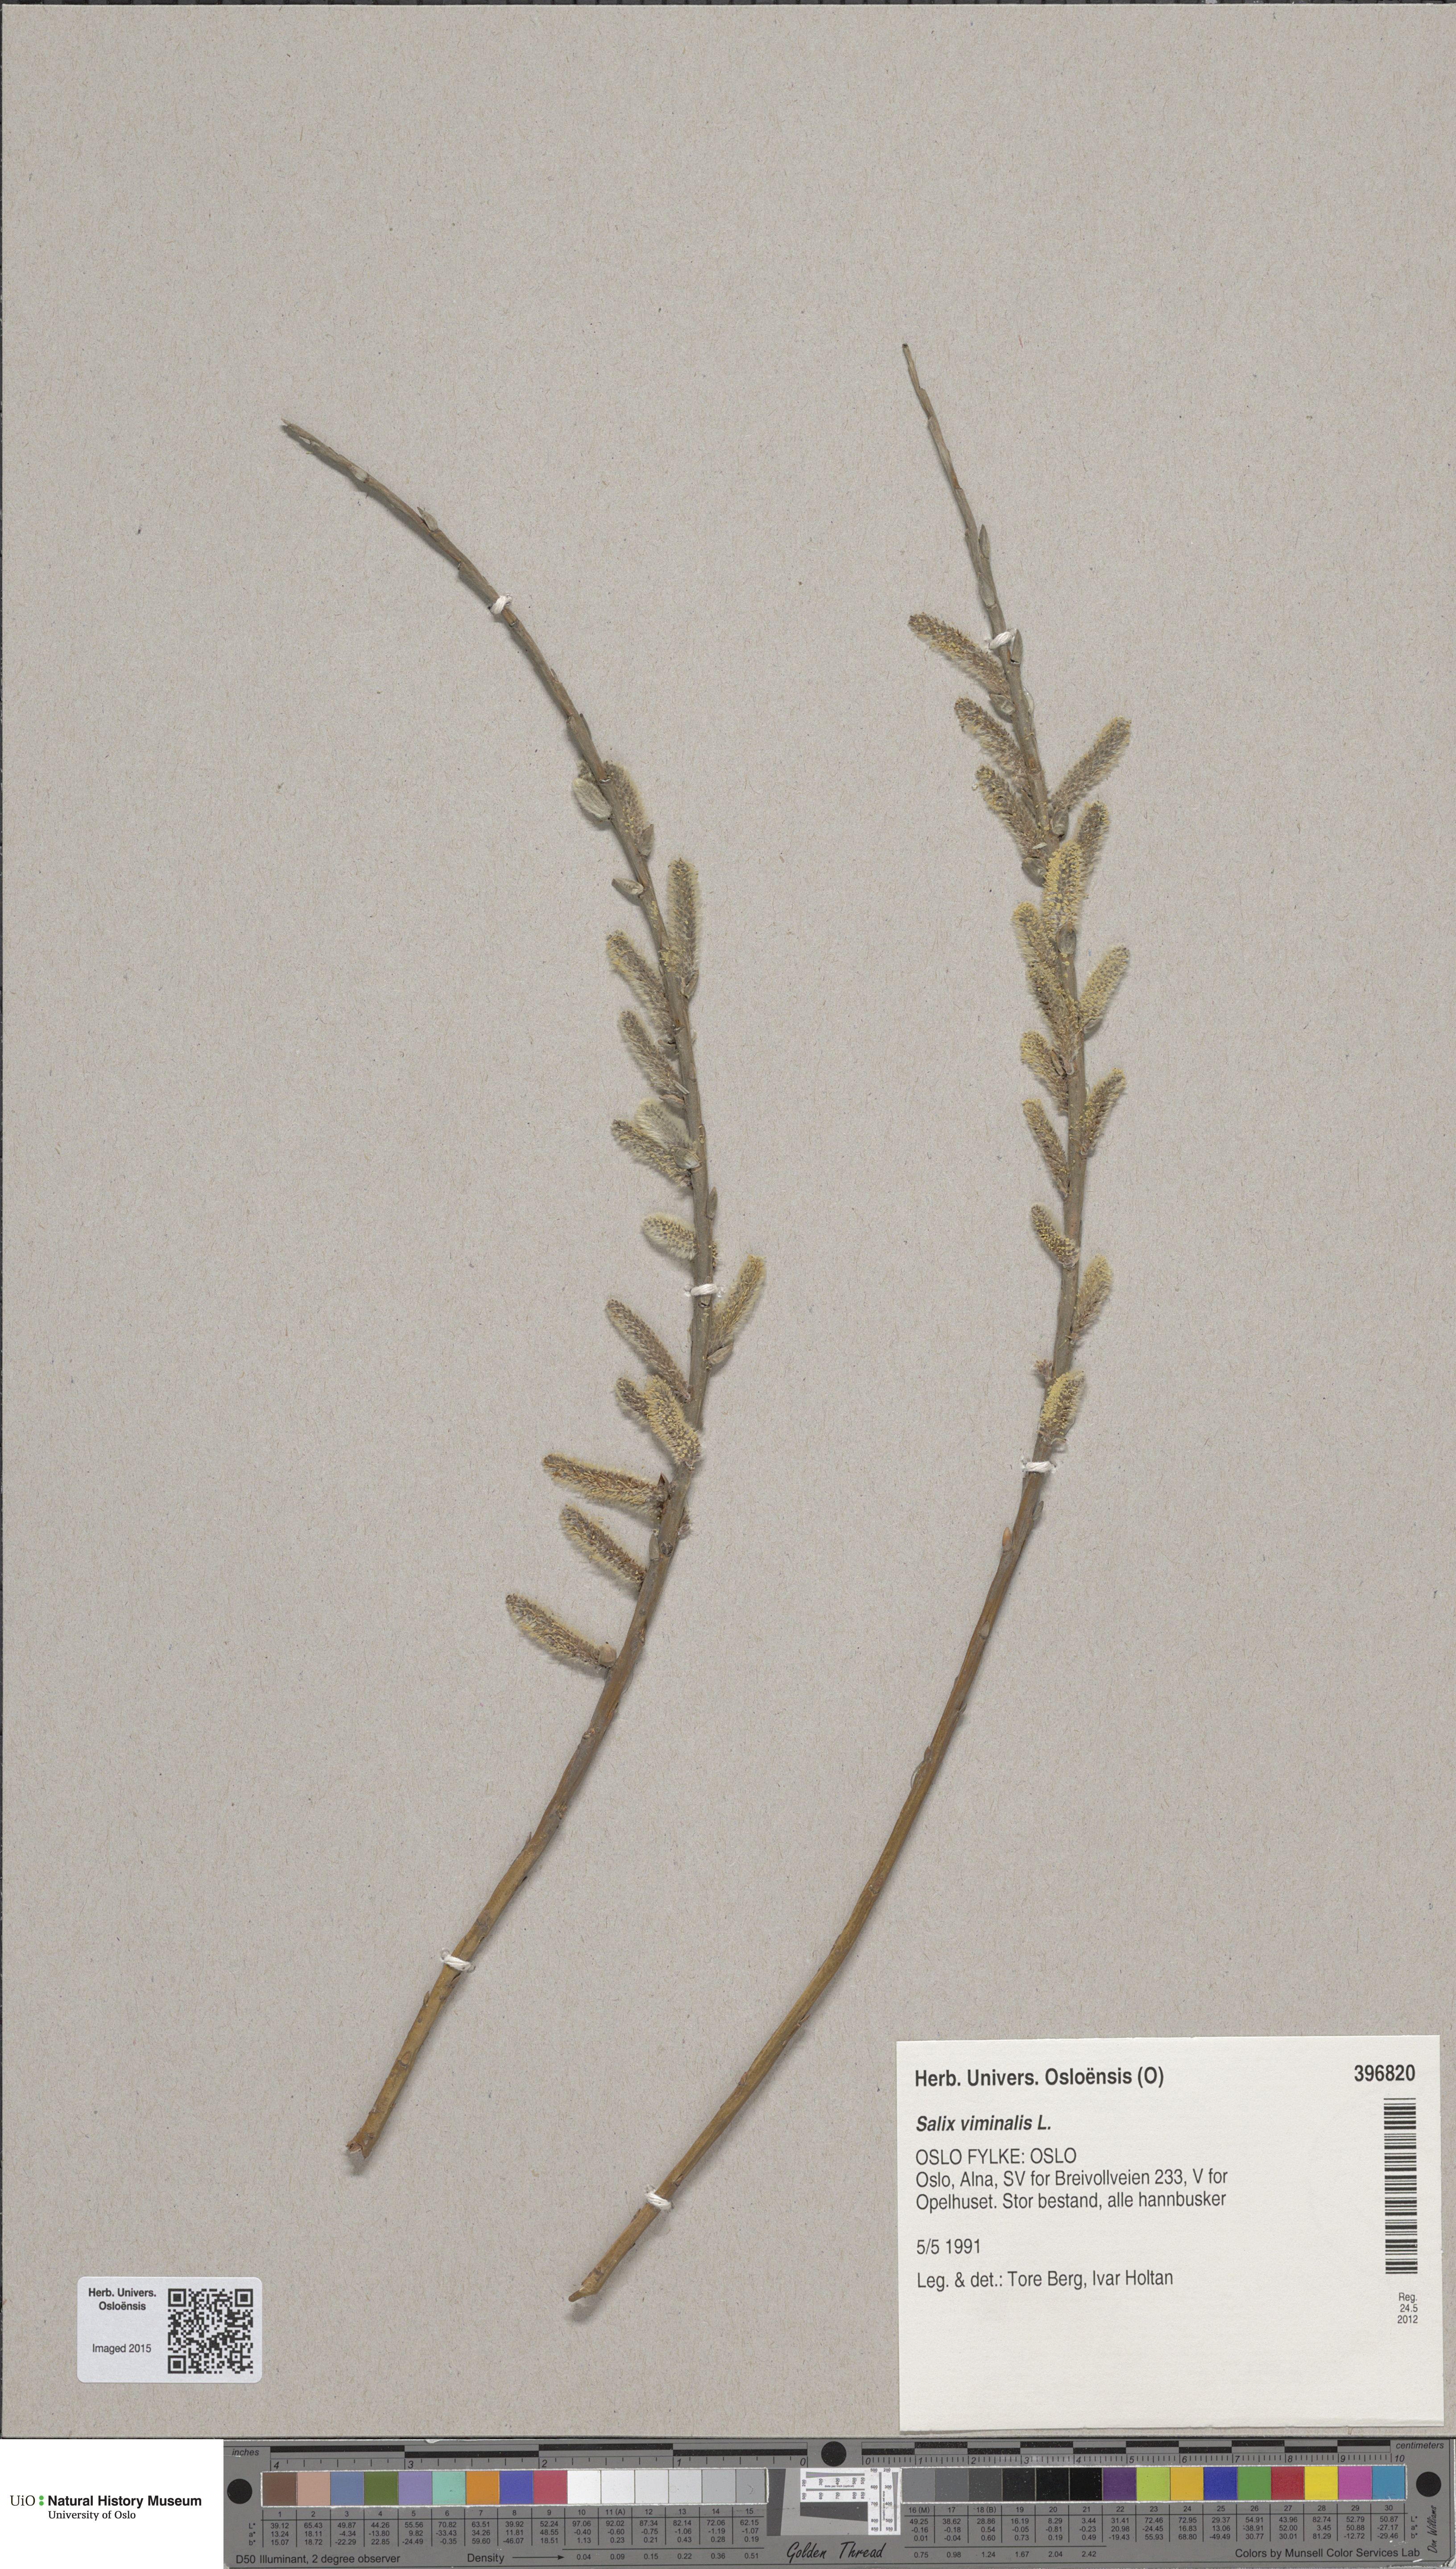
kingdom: Plantae
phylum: Tracheophyta
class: Magnoliopsida
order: Malpighiales
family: Salicaceae
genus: Salix
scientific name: Salix viminalis
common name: Osier
